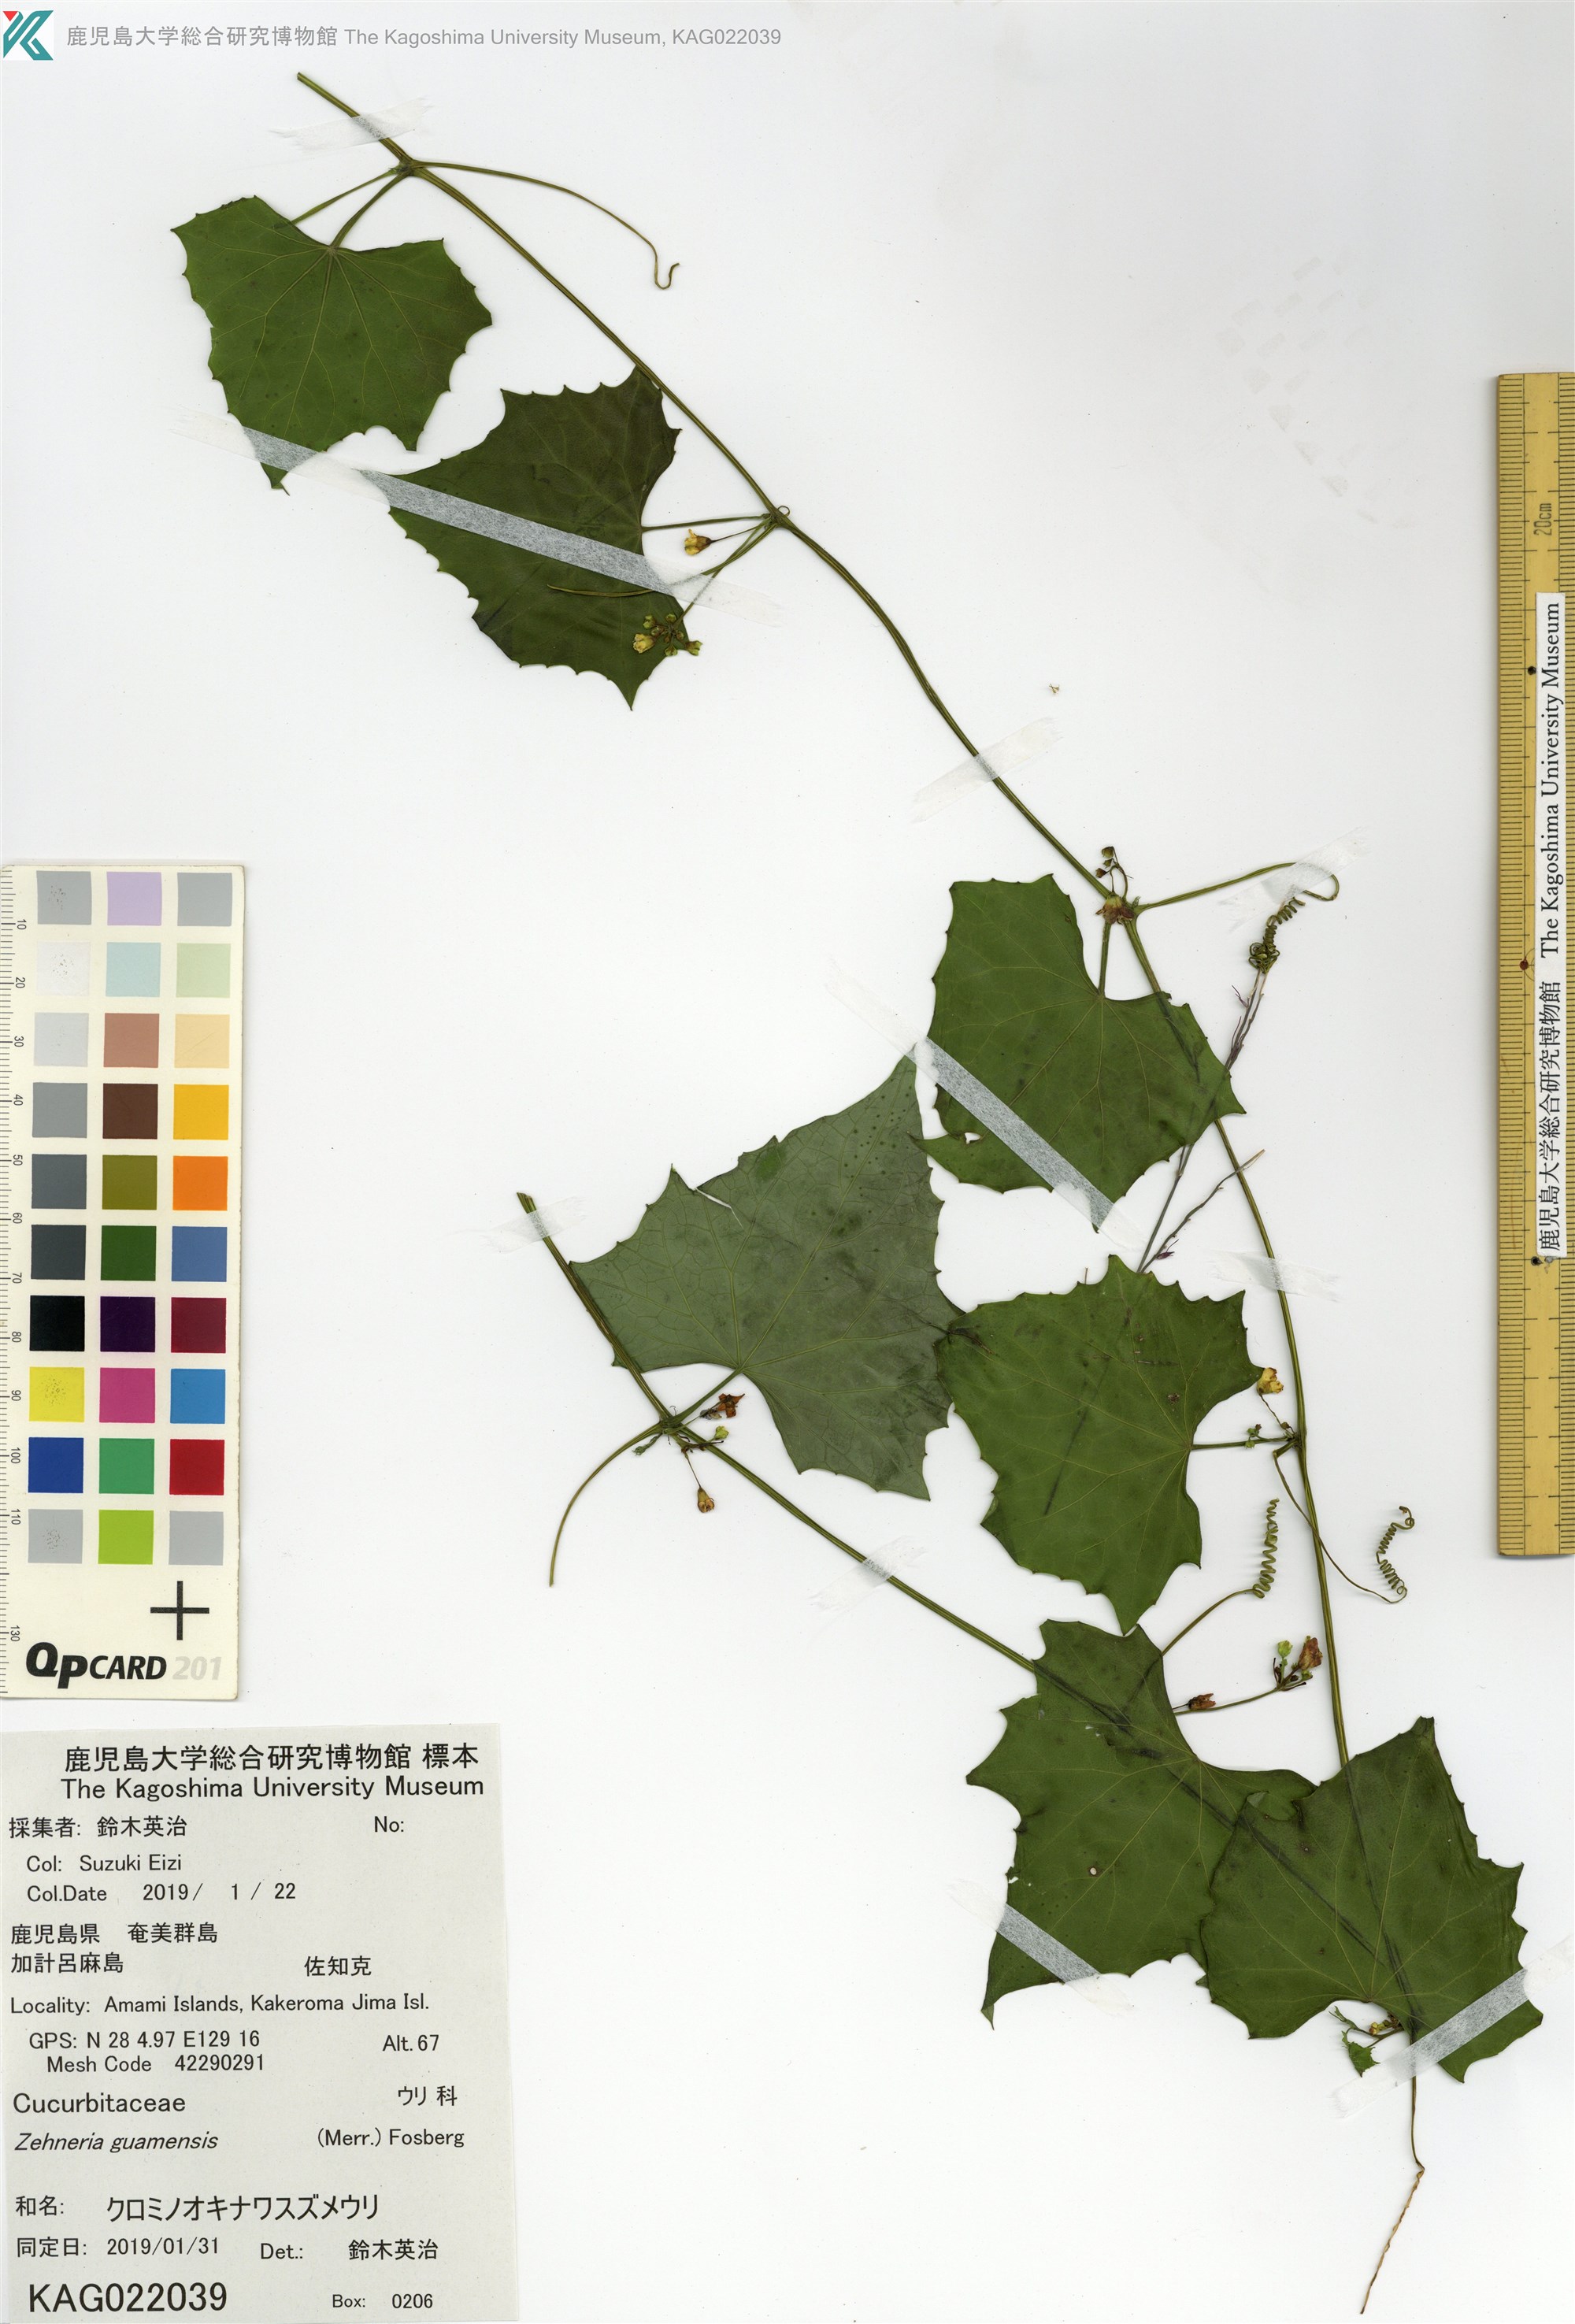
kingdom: Plantae
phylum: Tracheophyta
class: Magnoliopsida
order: Cucurbitales
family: Cucurbitaceae
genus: Zehneria
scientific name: Zehneria guamensis
